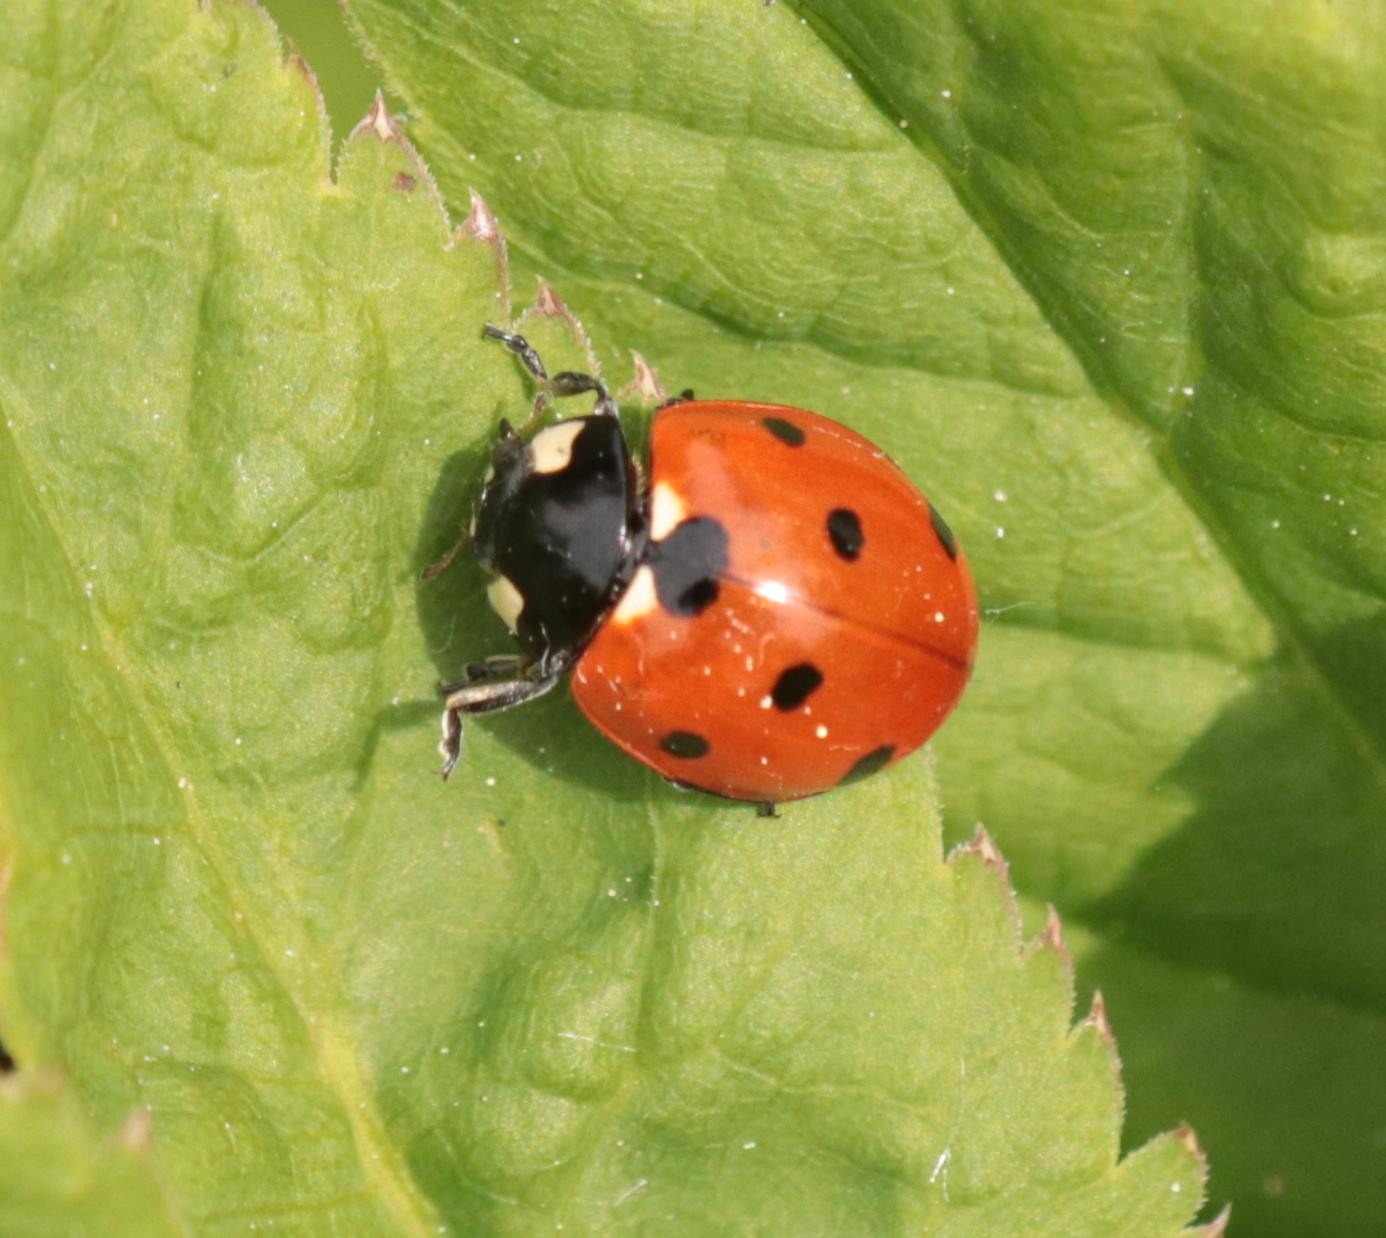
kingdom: Animalia
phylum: Arthropoda
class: Insecta
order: Coleoptera
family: Coccinellidae
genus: Coccinella
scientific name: Coccinella septempunctata
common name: Syvplettet mariehøne
